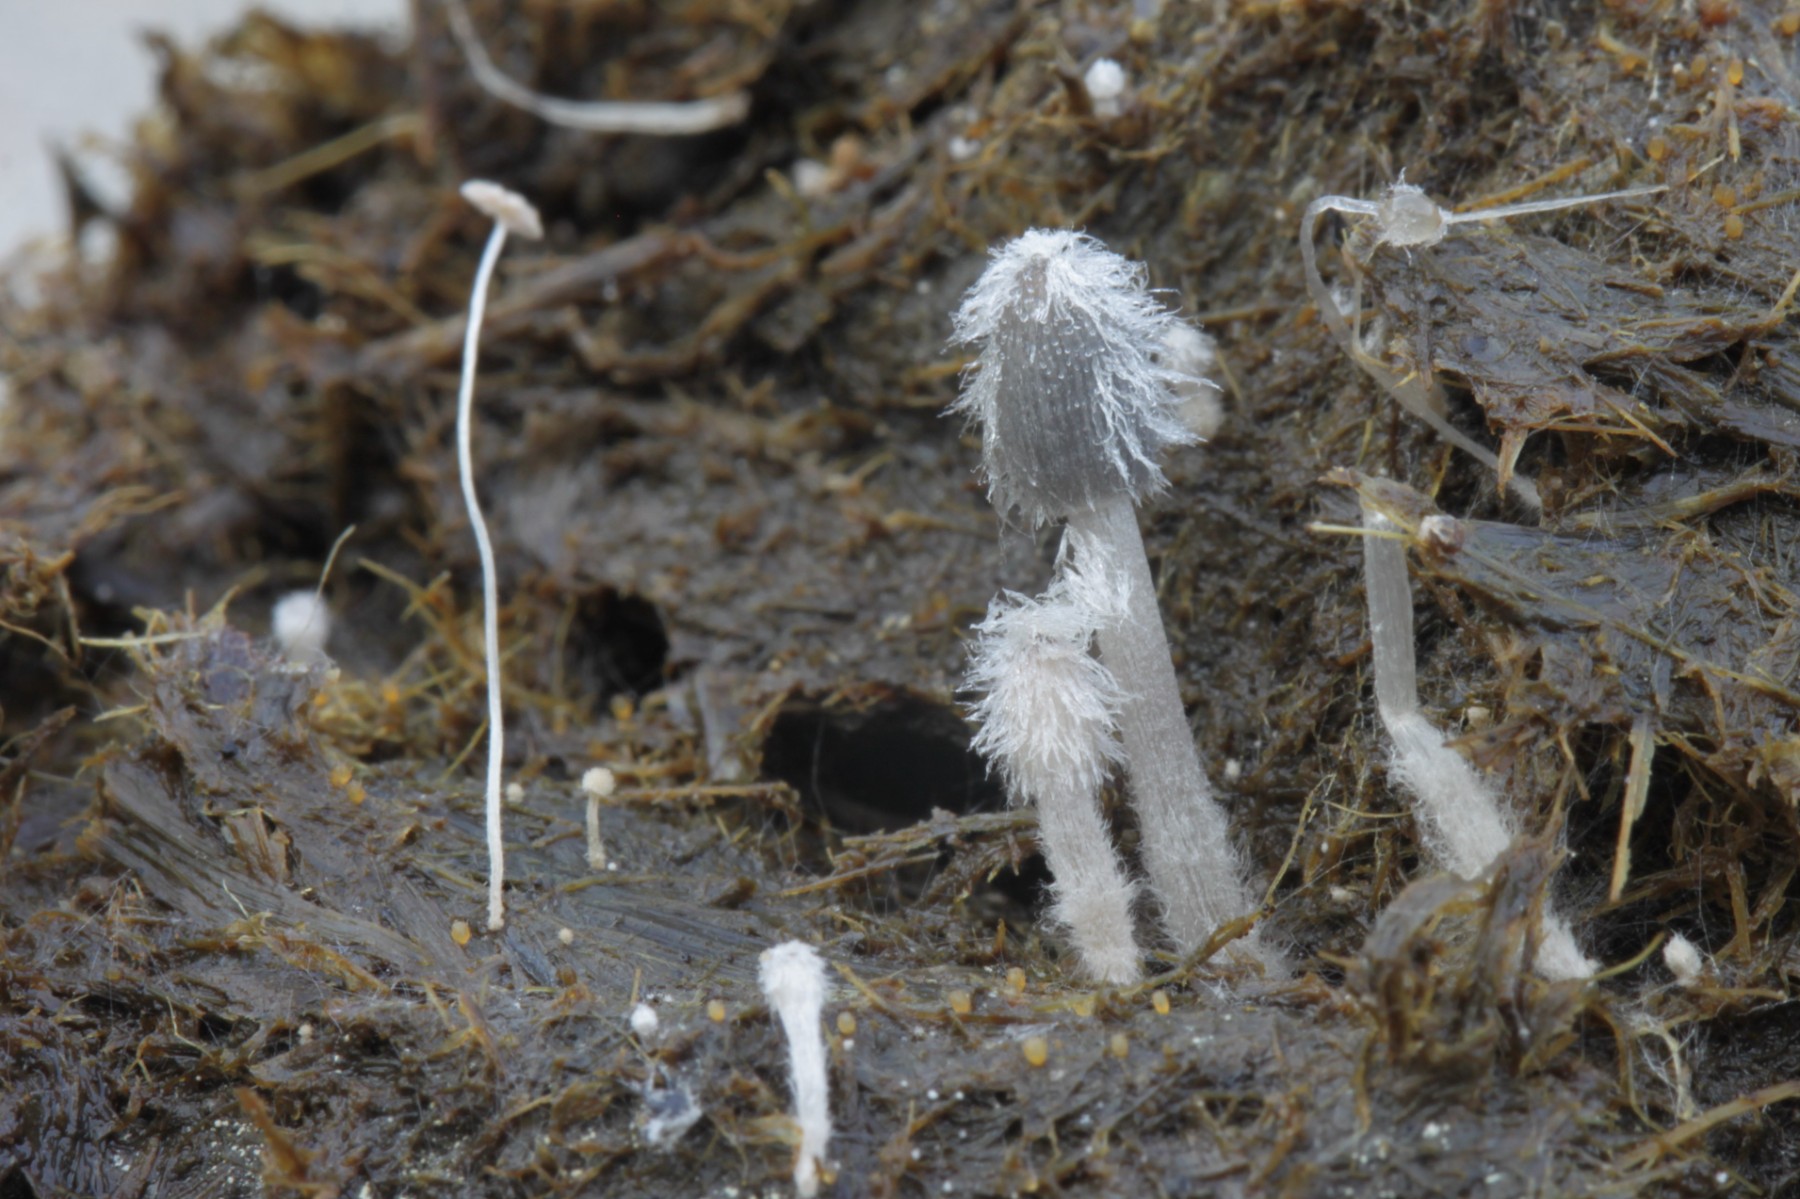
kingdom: Fungi
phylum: Basidiomycota
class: Agaricomycetes
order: Agaricales
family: Psathyrellaceae
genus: Coprinopsis
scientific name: Coprinopsis pseudoradiata
